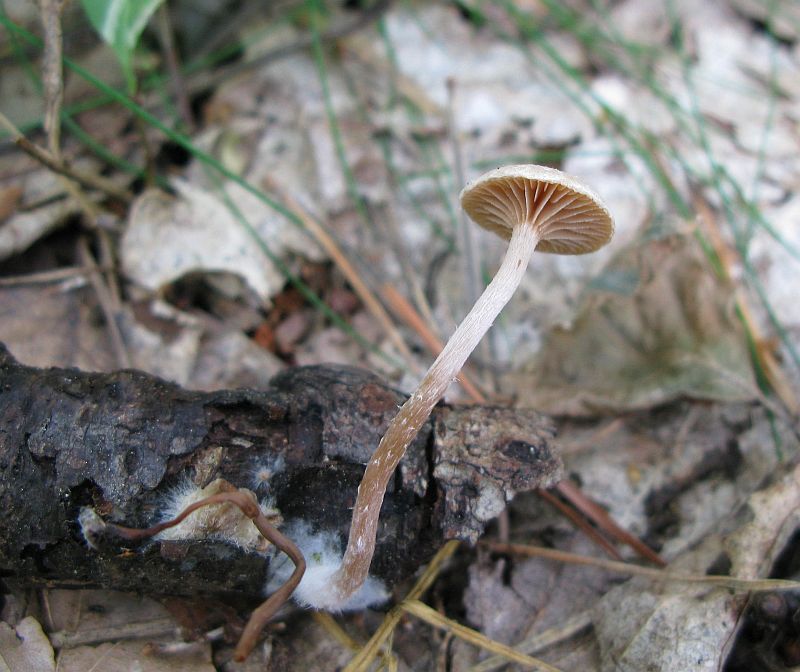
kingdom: Fungi
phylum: Basidiomycota
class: Agaricomycetes
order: Agaricales
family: Tubariaceae
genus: Tubaria
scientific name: Tubaria conspersa
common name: bleg fnughat
